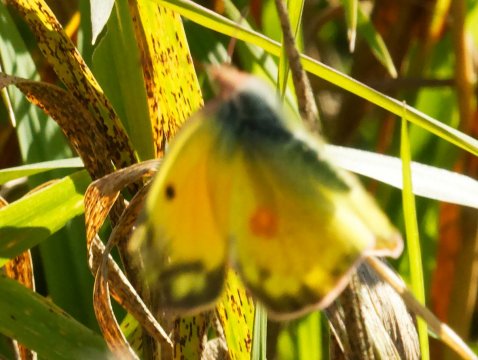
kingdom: Animalia
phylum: Arthropoda
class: Insecta
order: Lepidoptera
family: Pieridae
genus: Colias
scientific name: Colias eurytheme
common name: Orange Sulphur
